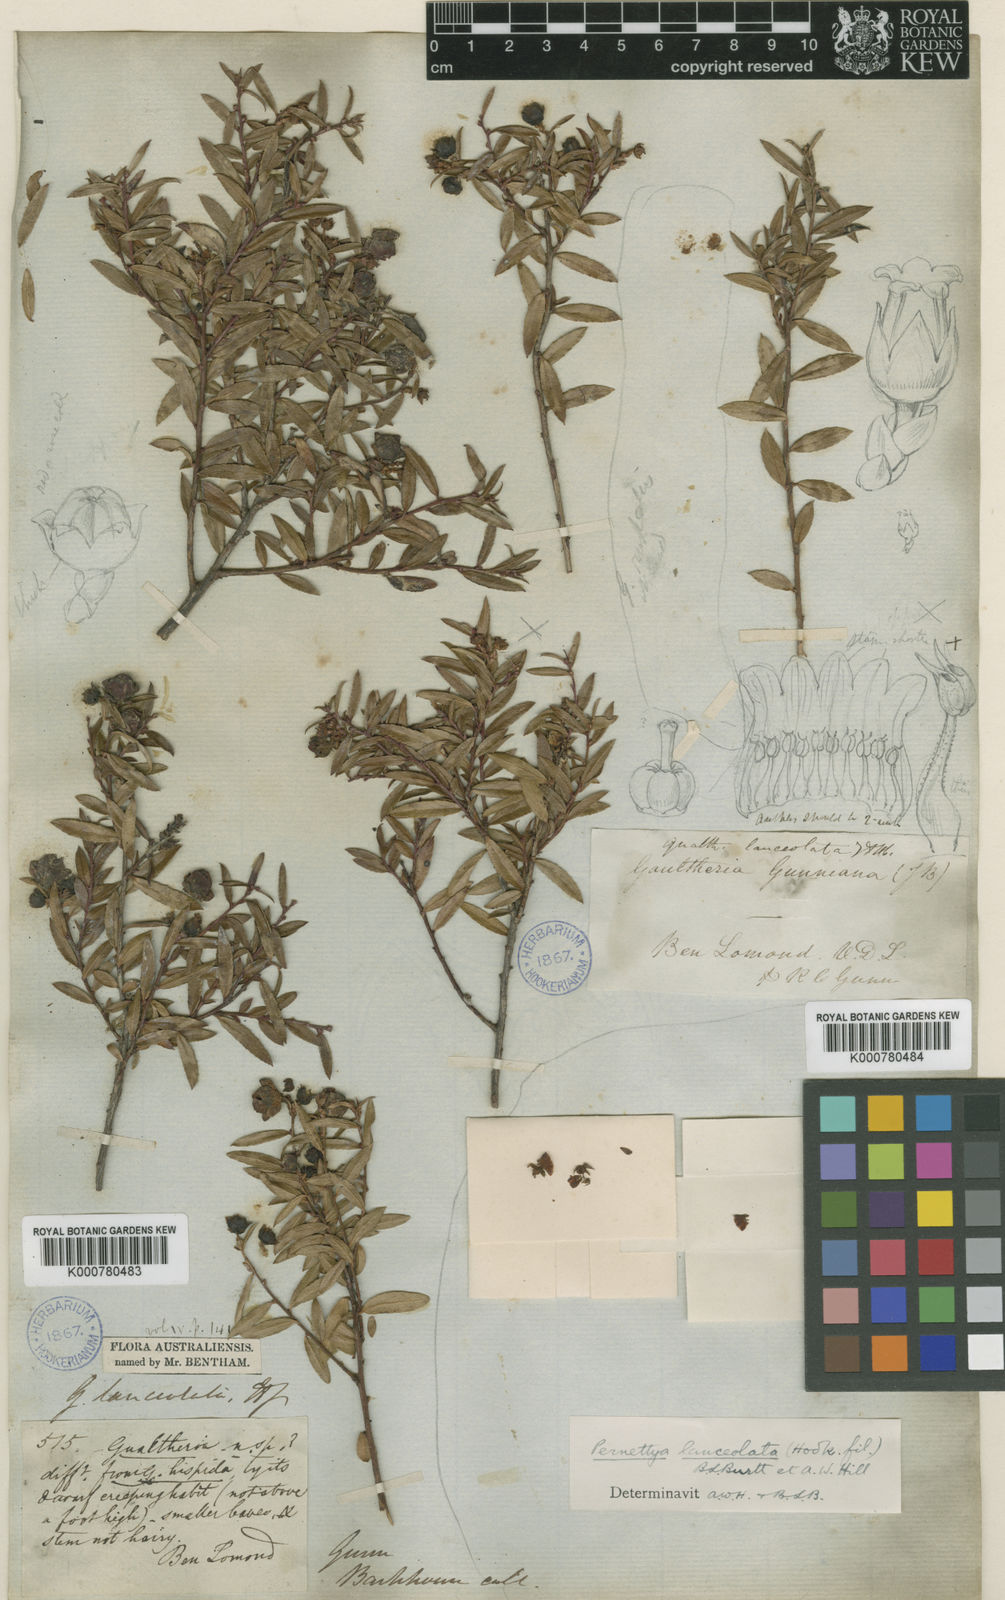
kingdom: Plantae
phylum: Tracheophyta
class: Magnoliopsida
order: Ericales
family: Ericaceae
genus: Gaultheria
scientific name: Gaultheria
